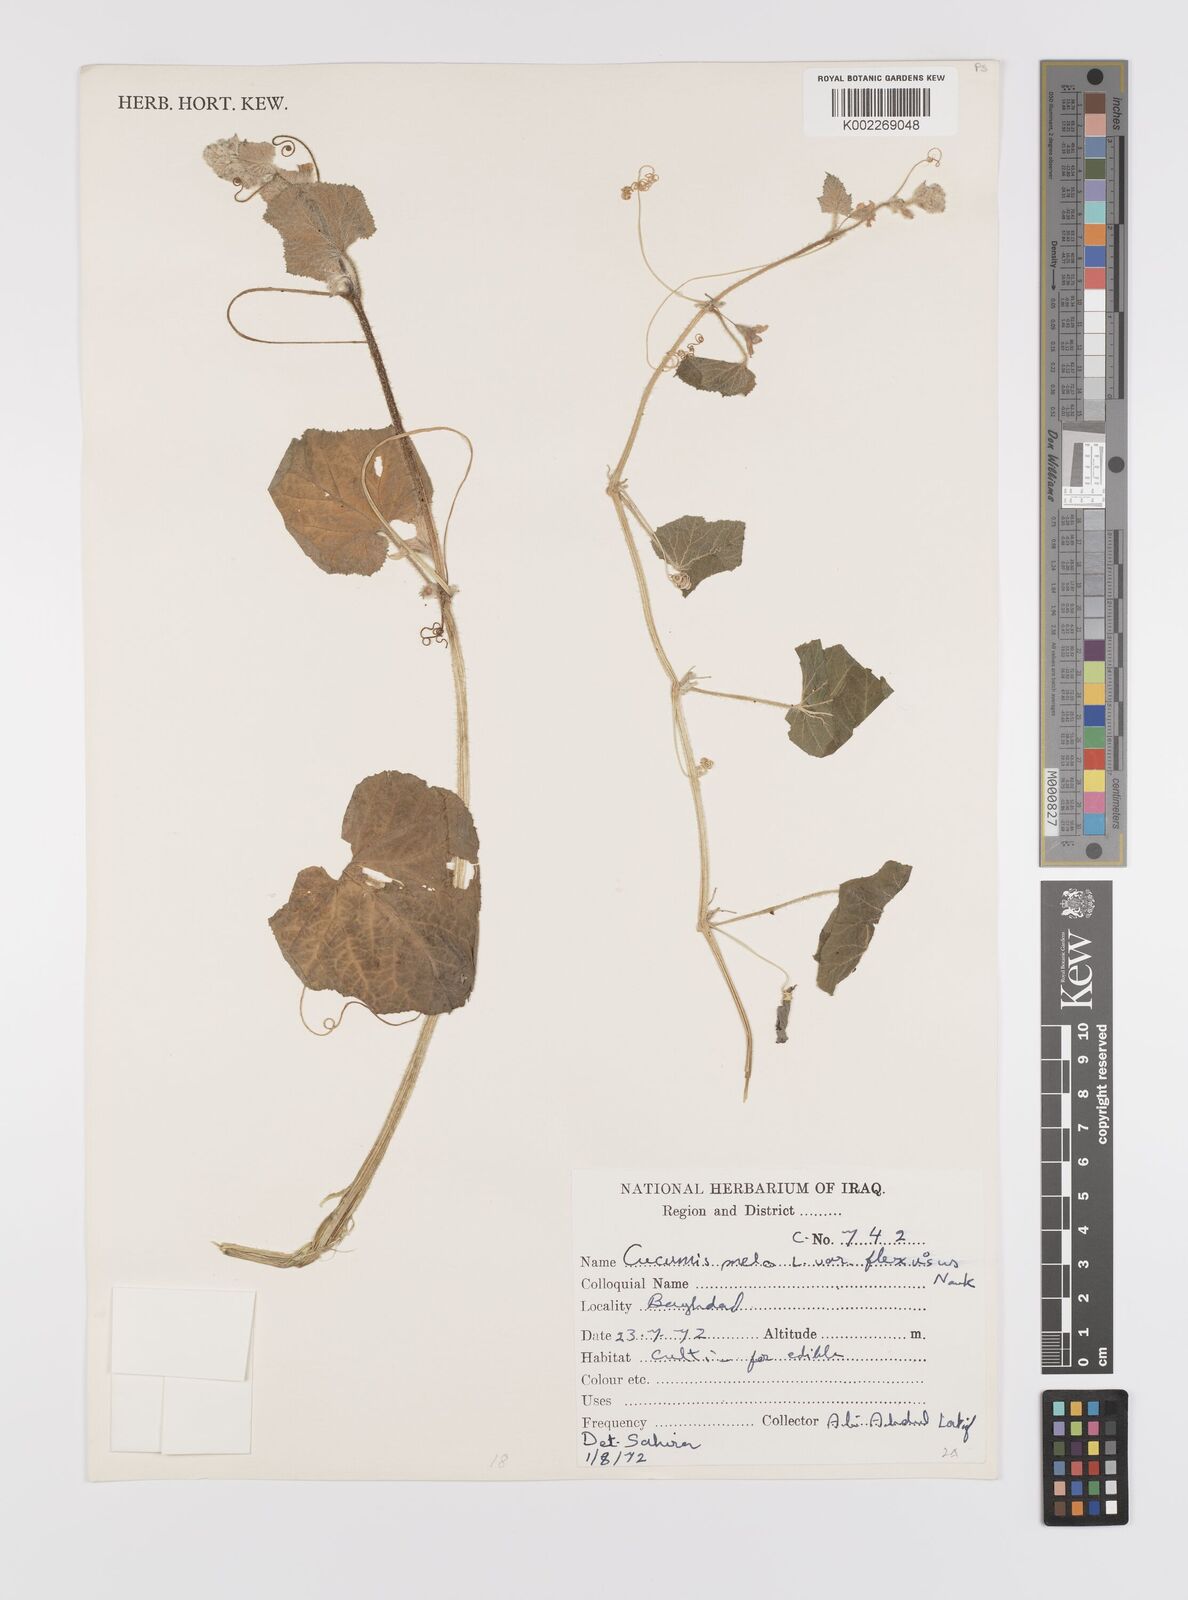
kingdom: Plantae
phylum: Tracheophyta
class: Magnoliopsida
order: Cucurbitales
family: Cucurbitaceae
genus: Cucumis
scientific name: Cucumis melo
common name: Melon
